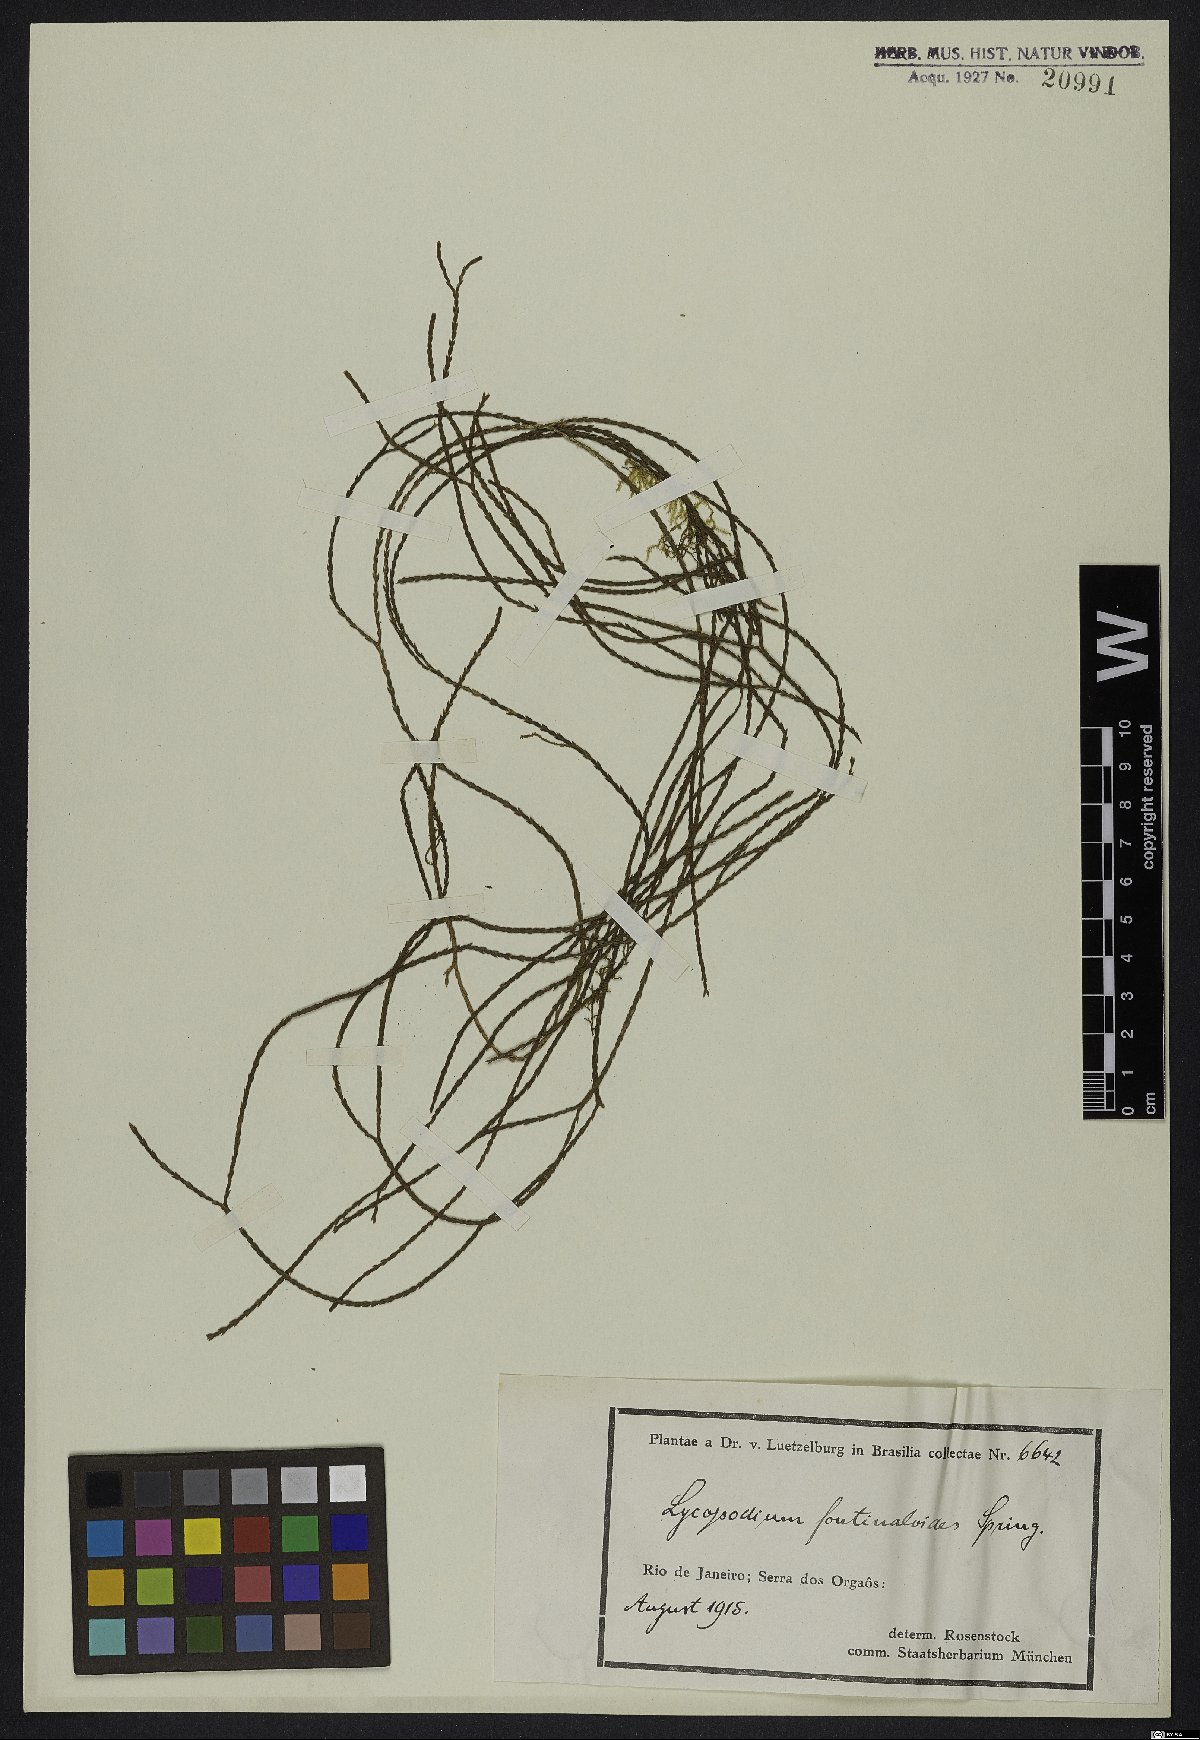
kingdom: Plantae
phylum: Tracheophyta
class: Lycopodiopsida
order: Lycopodiales
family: Lycopodiaceae
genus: Phlegmariurus
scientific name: Phlegmariurus fontinaloides
